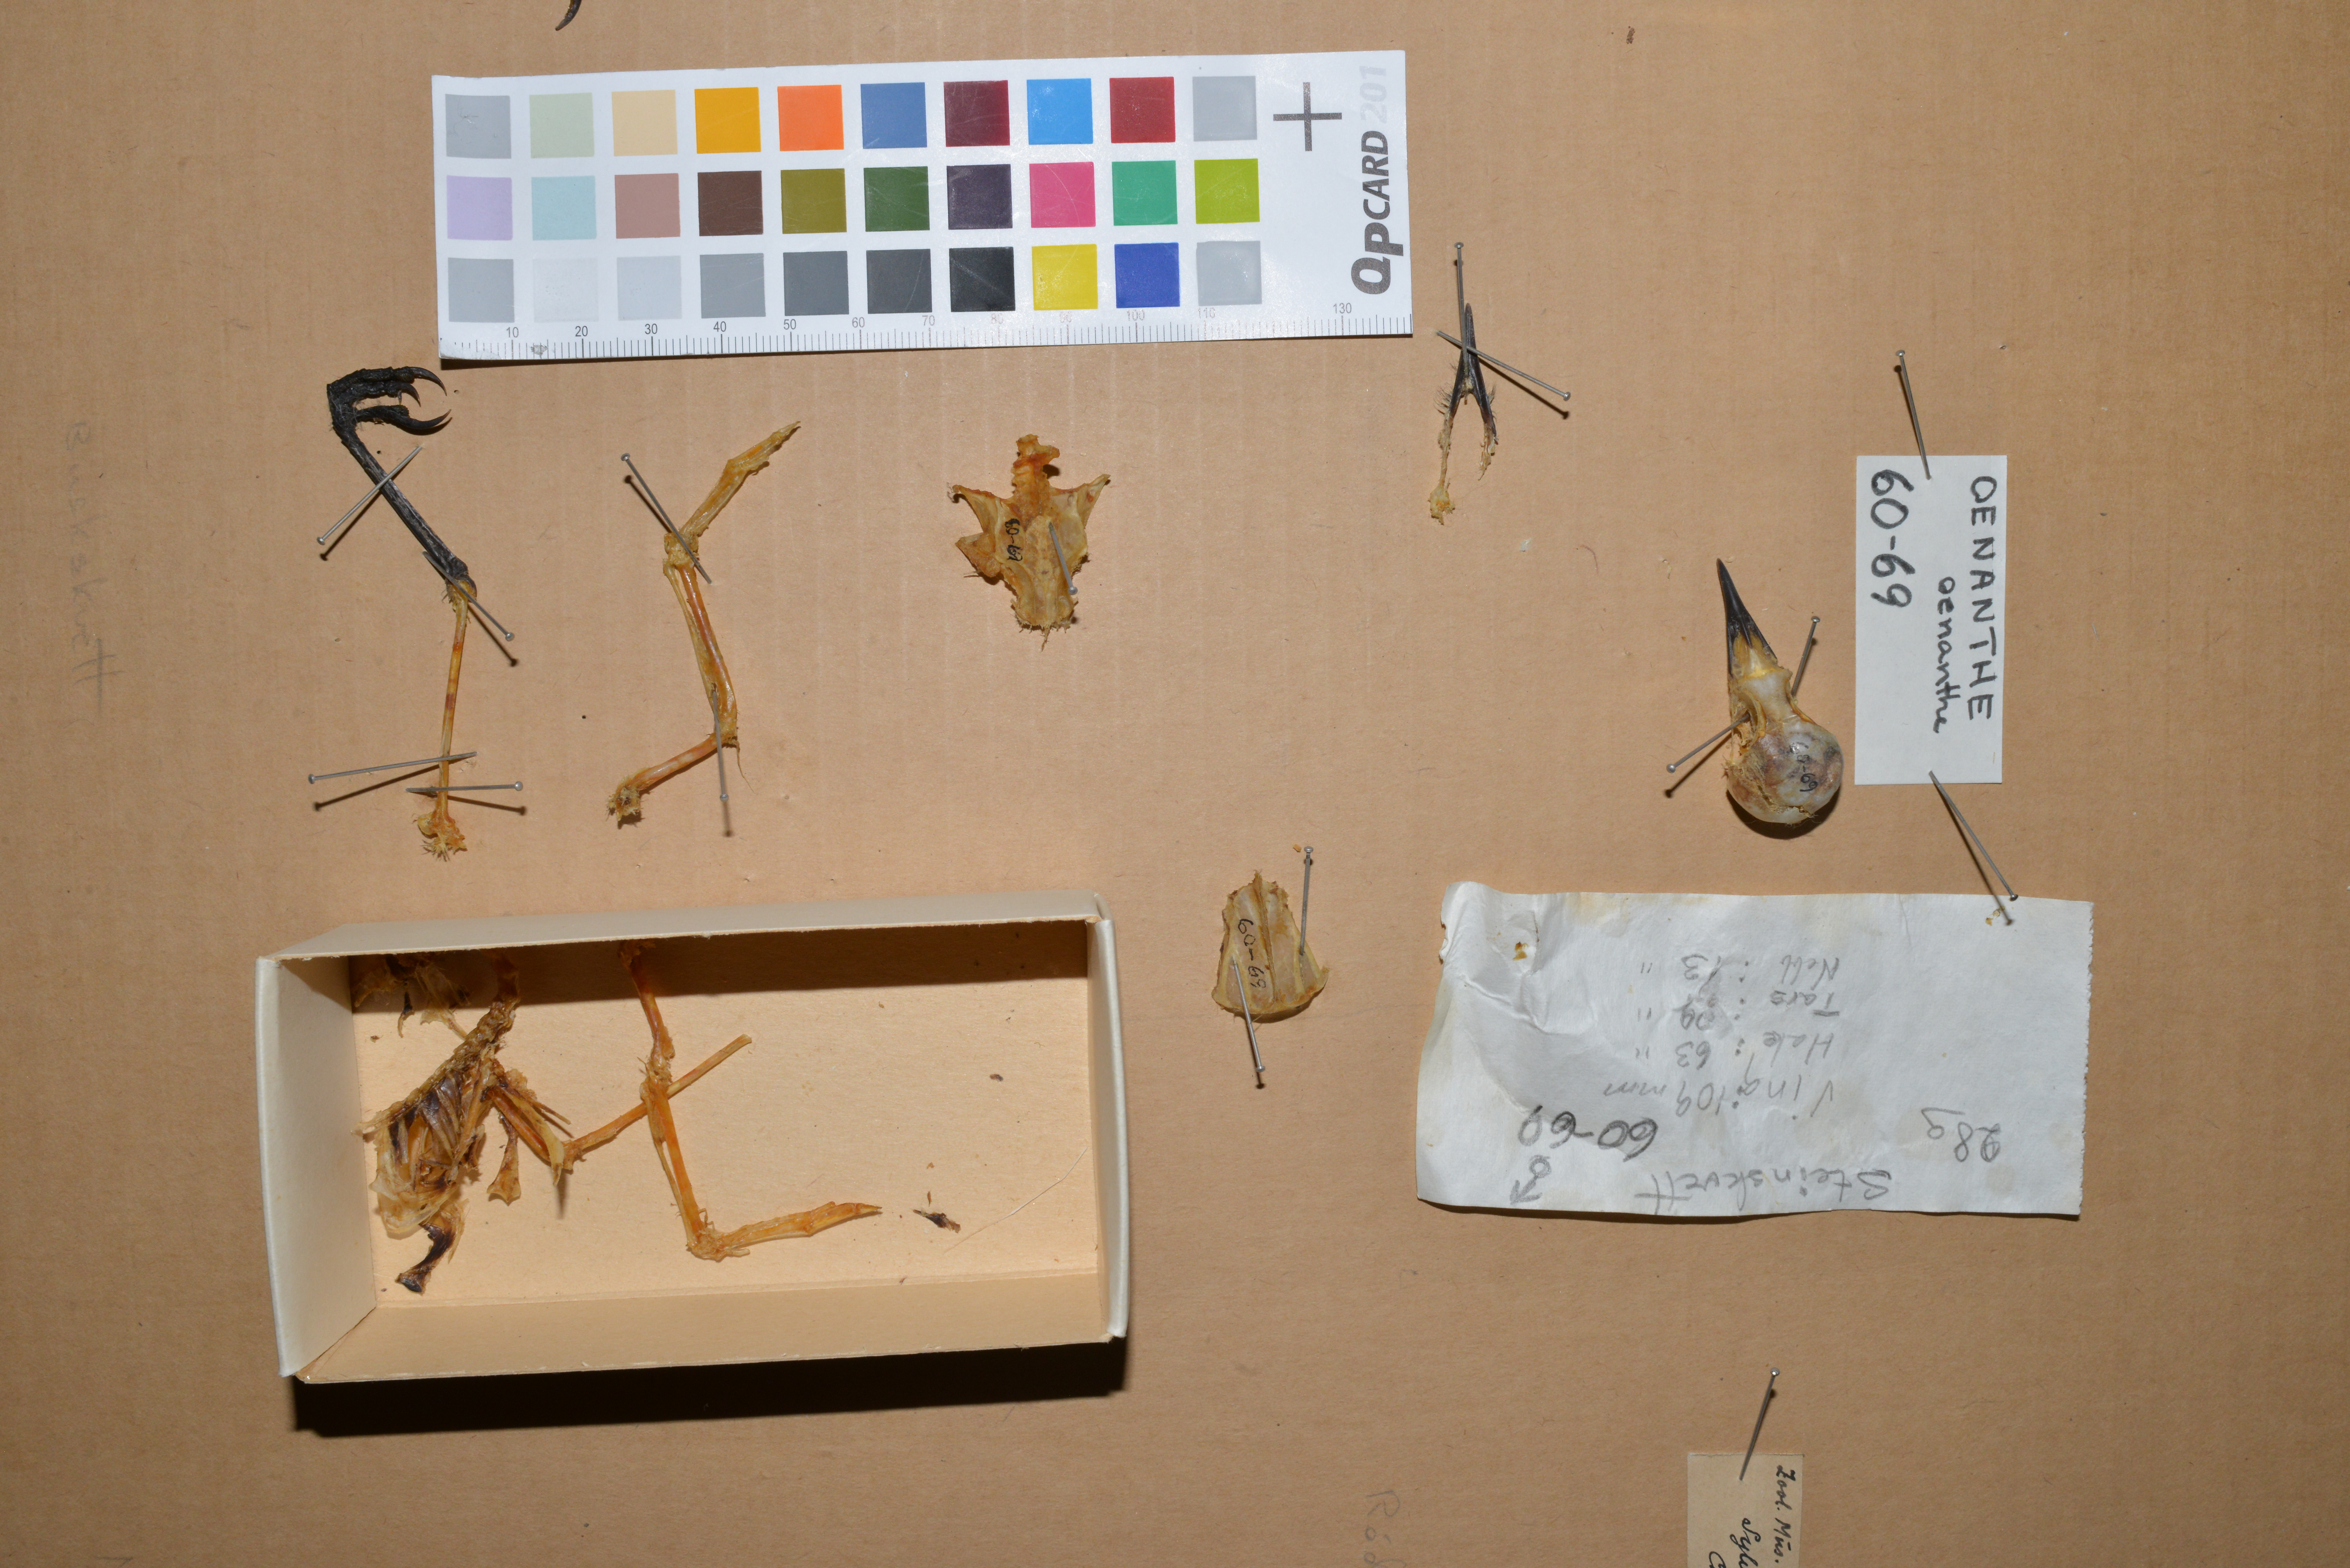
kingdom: Animalia
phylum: Chordata
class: Aves
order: Passeriformes
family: Muscicapidae
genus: Oenanthe
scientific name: Oenanthe oenanthe
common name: Northern wheatear
